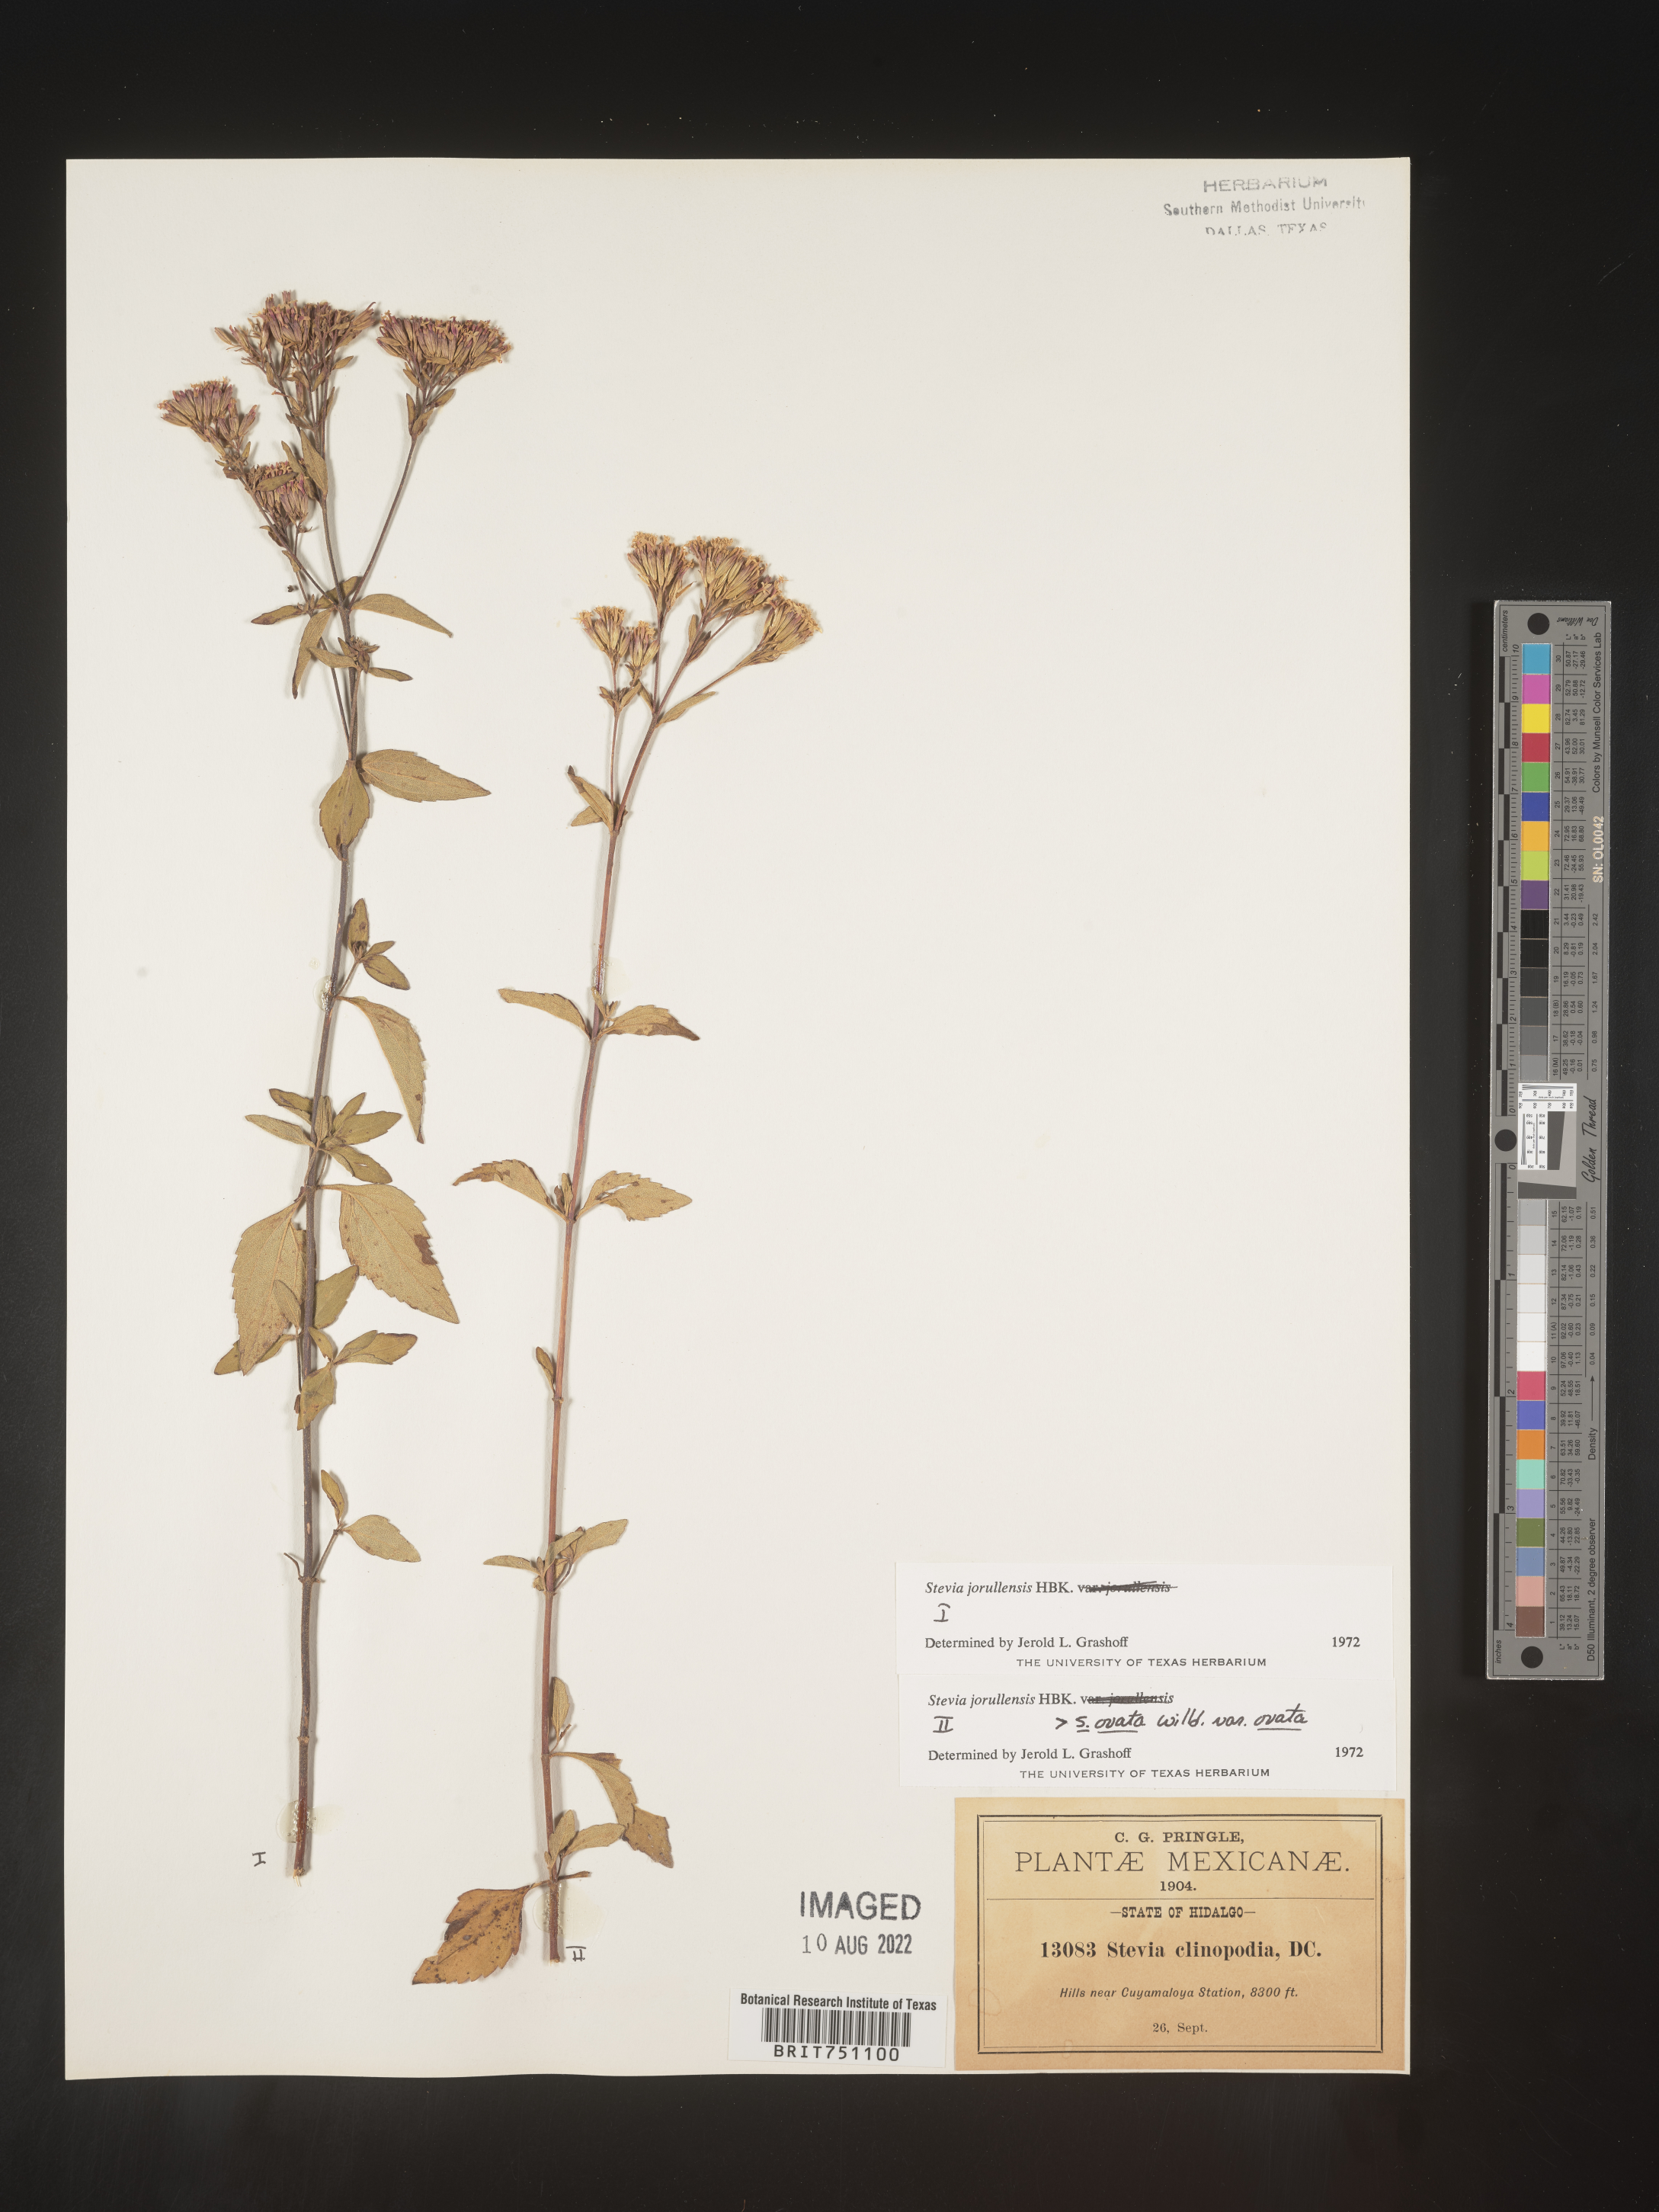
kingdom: Plantae
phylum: Tracheophyta
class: Magnoliopsida
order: Asterales
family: Asteraceae
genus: Stevia
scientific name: Stevia jorullensis
